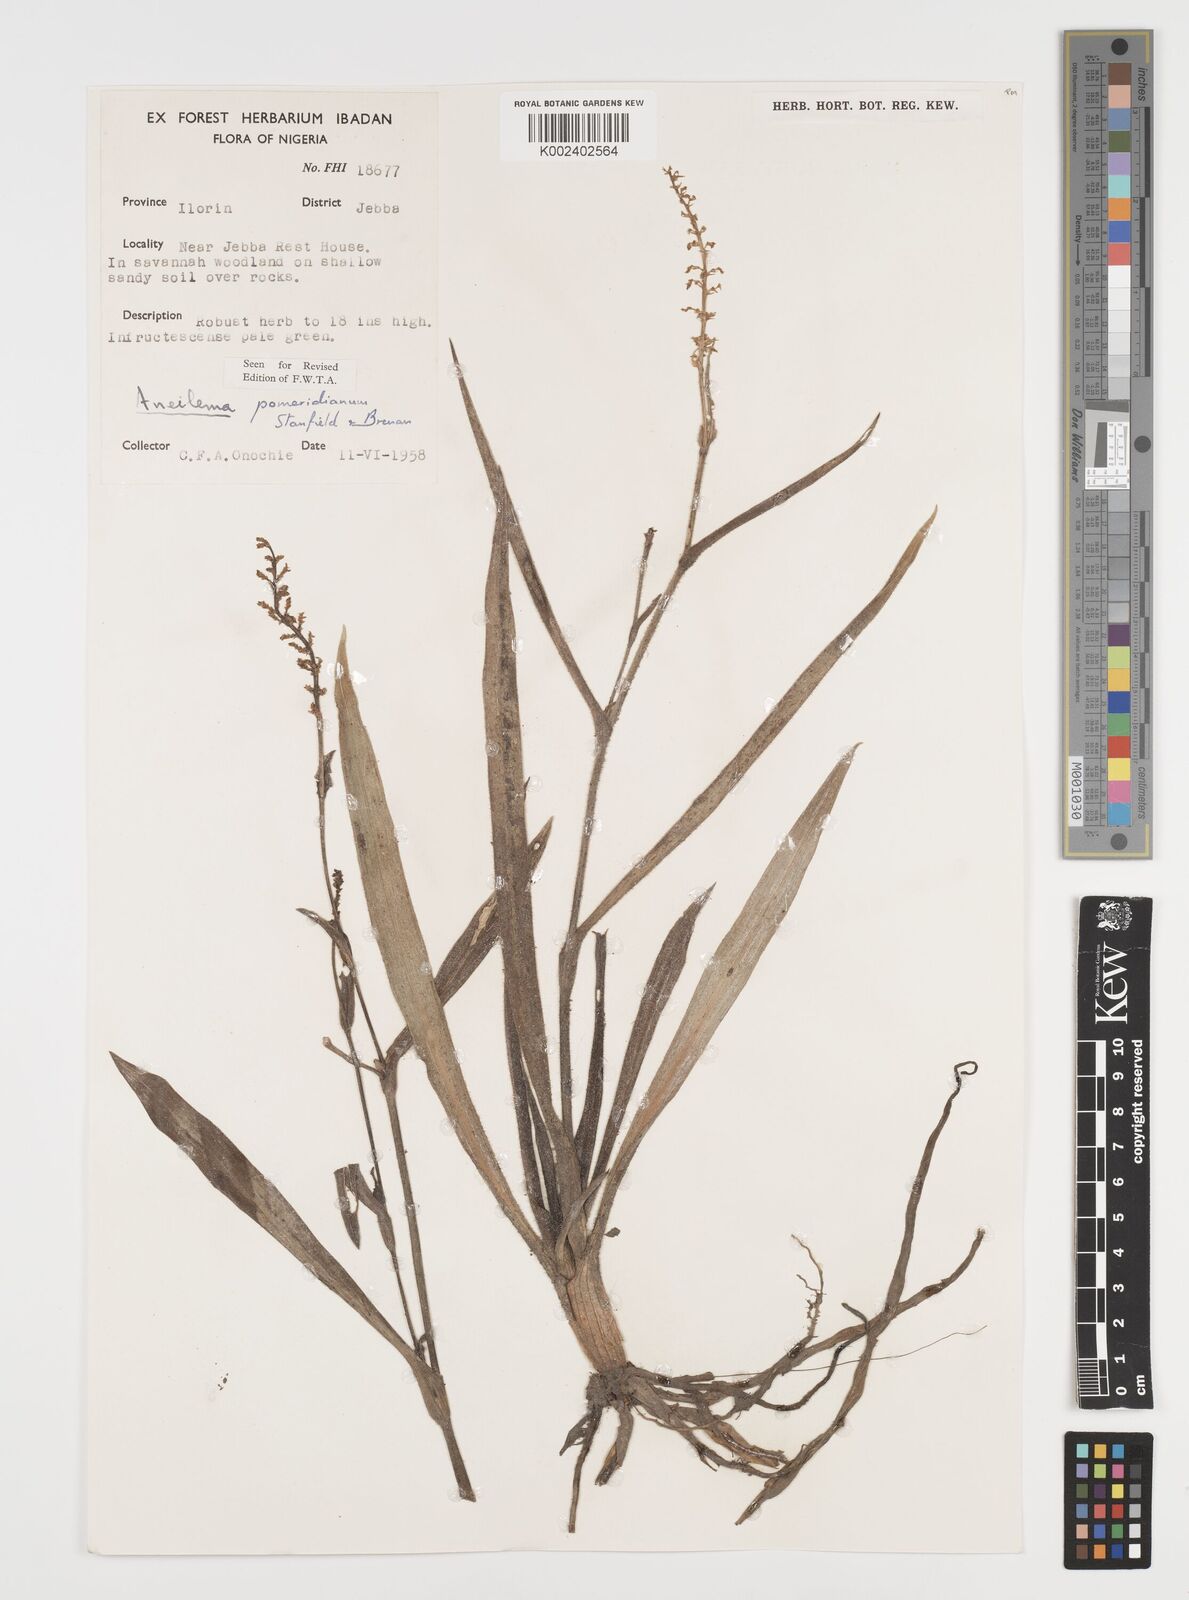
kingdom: Plantae
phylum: Tracheophyta
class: Liliopsida
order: Commelinales
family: Commelinaceae
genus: Aneilema
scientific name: Aneilema pomeridianum
